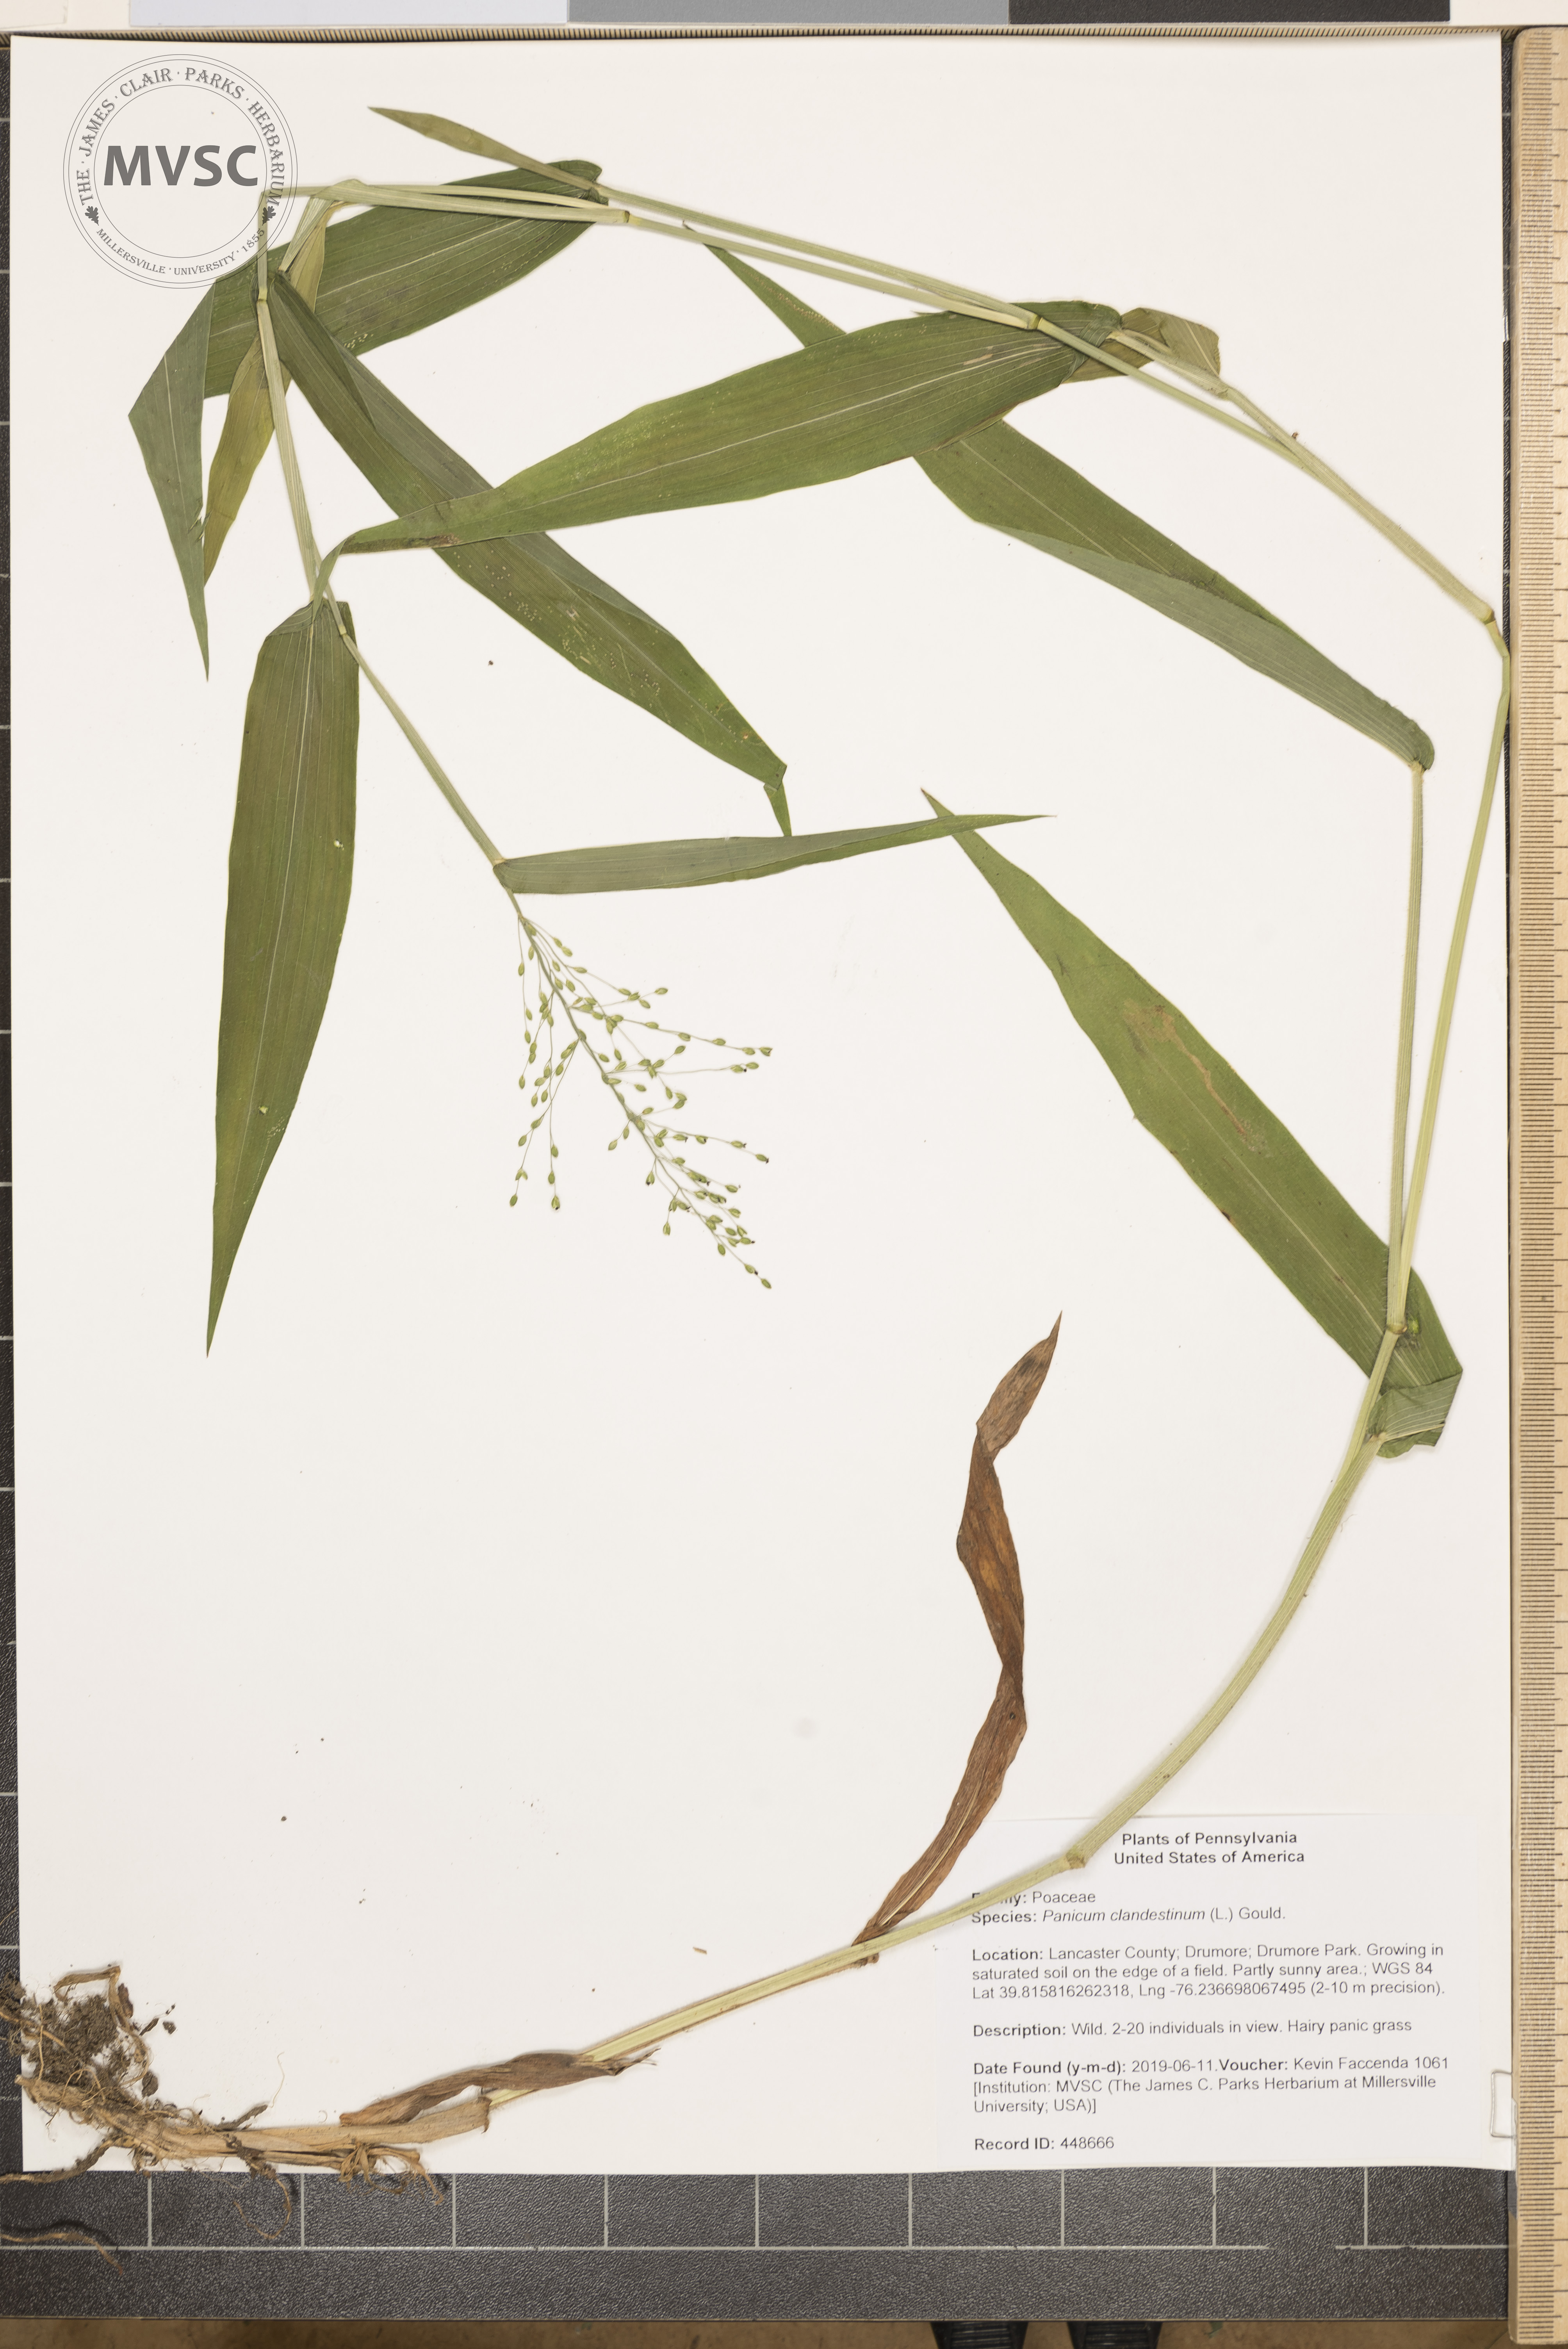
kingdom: Plantae
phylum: Tracheophyta
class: Liliopsida
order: Poales
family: Poaceae
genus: Dichanthelium
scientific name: Dichanthelium clandestinum
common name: Deer-tongue grass
